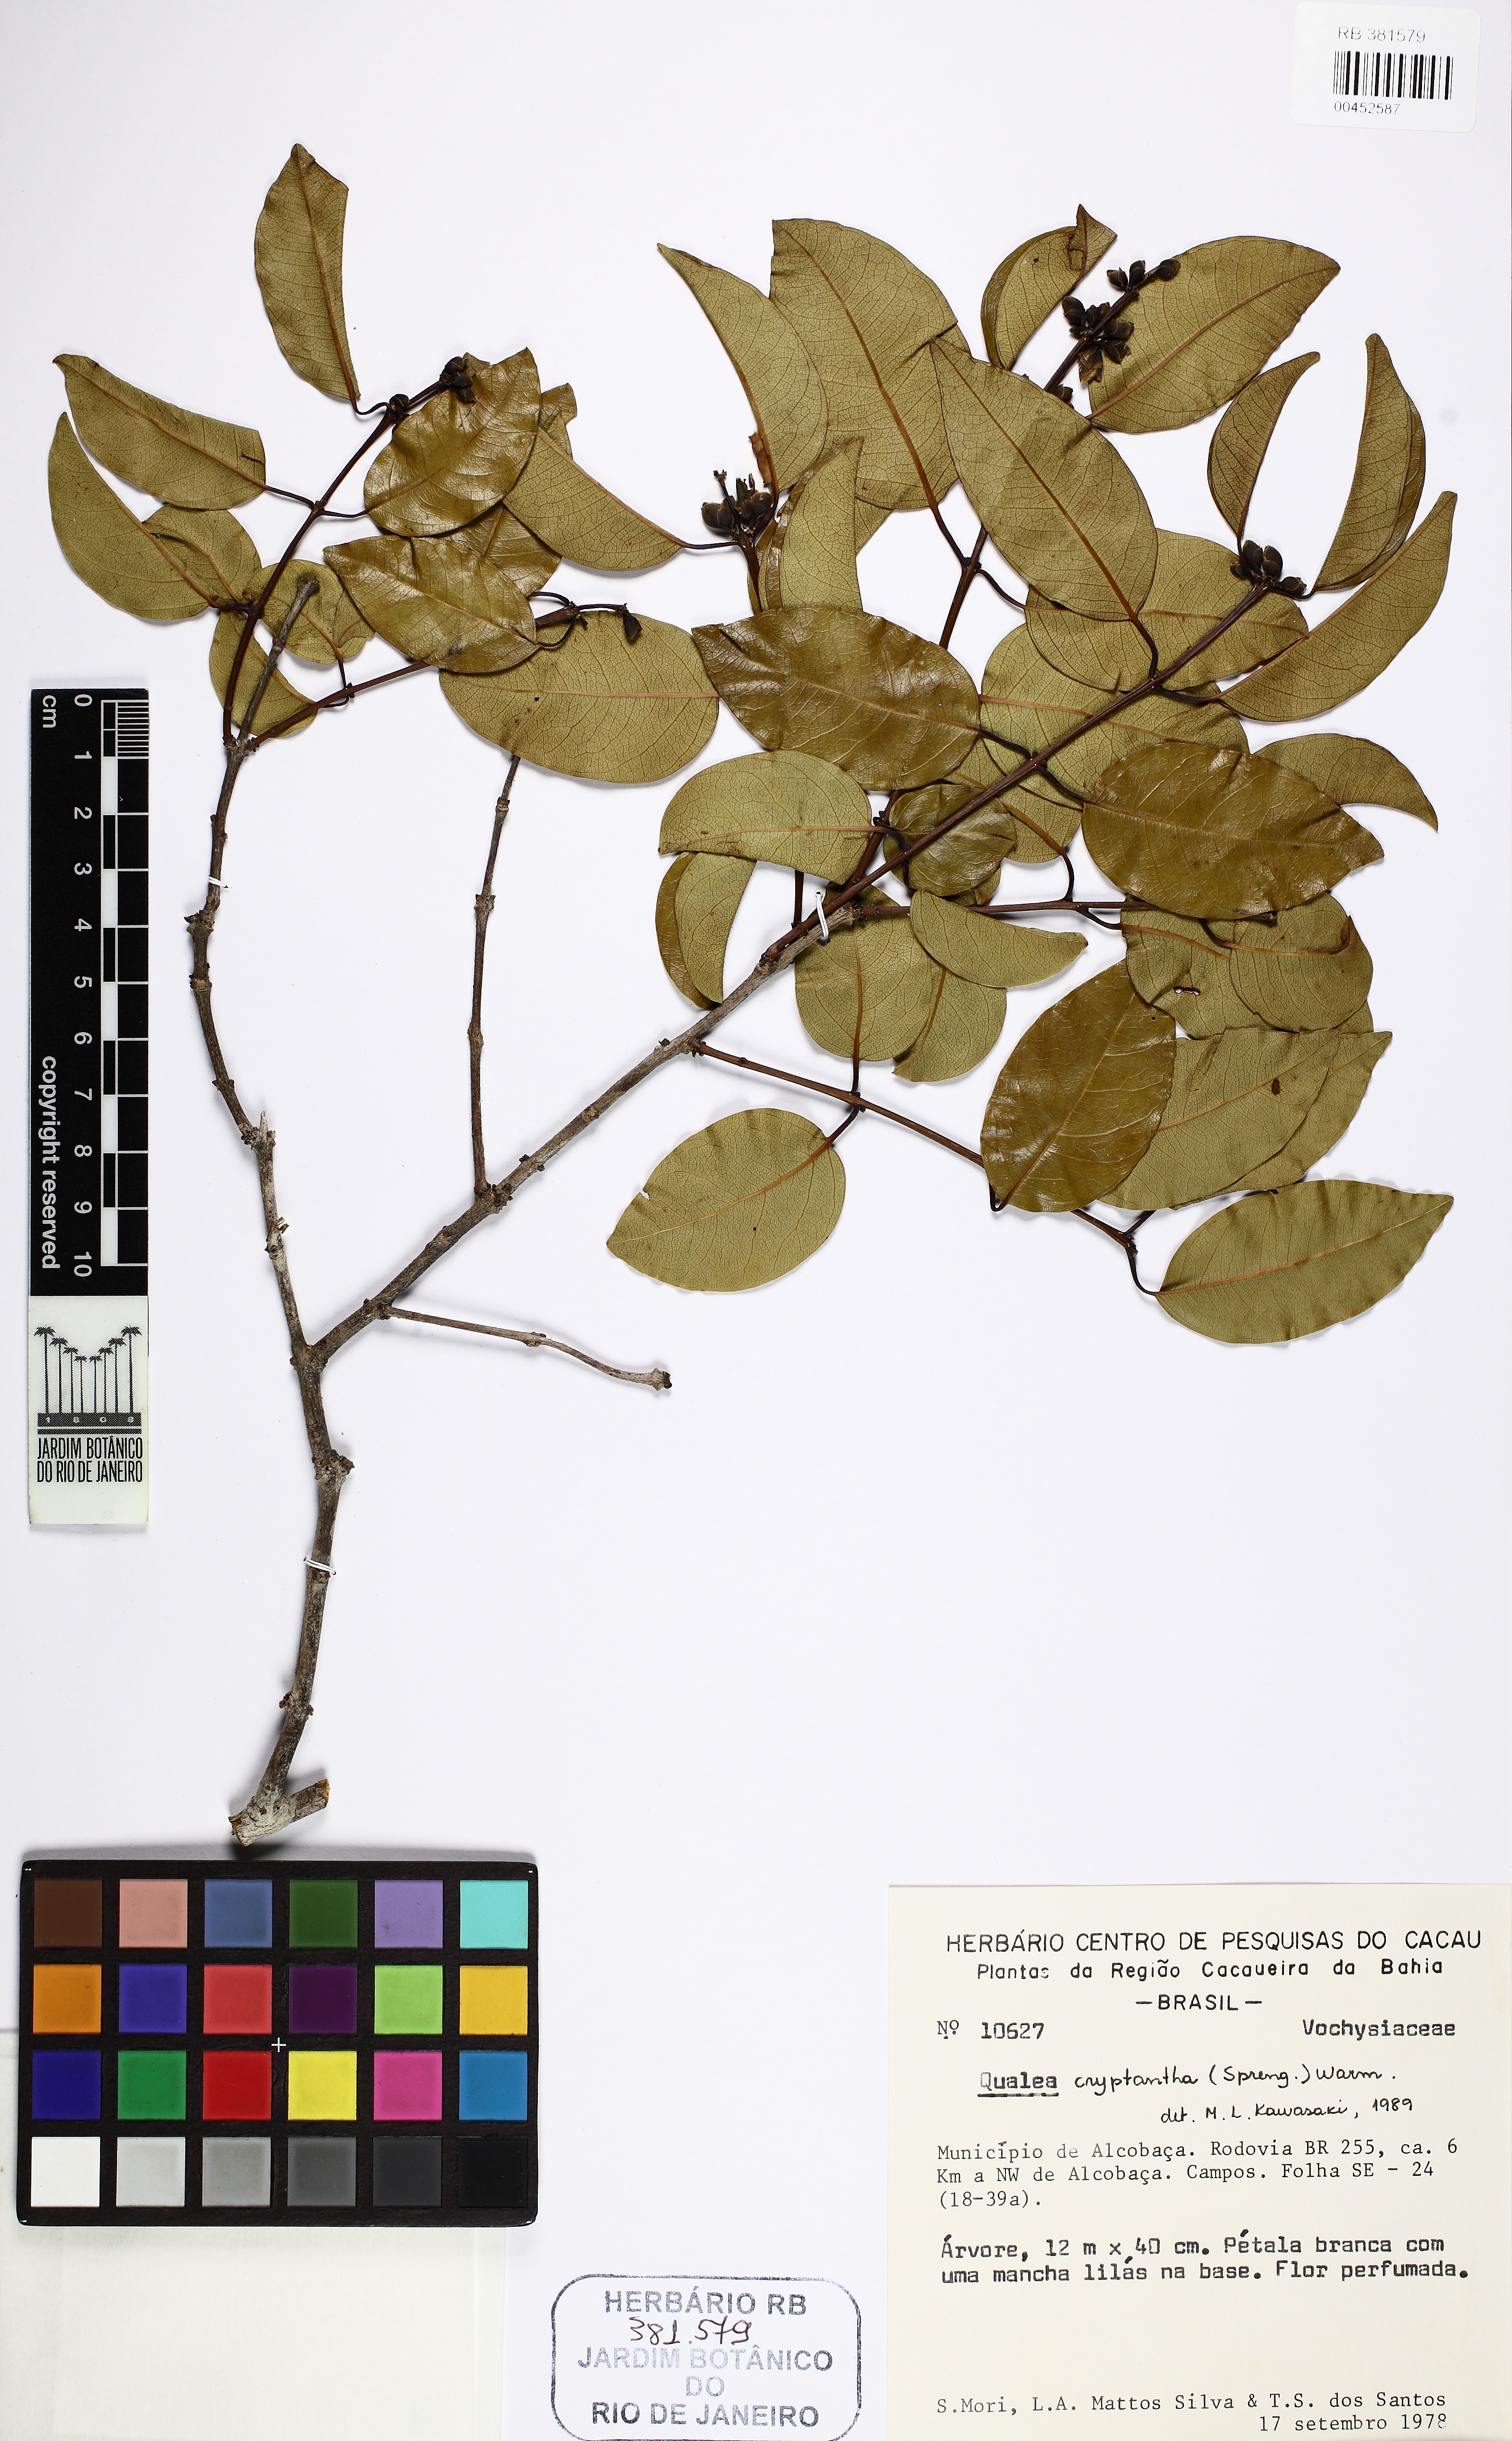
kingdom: Plantae
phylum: Tracheophyta
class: Magnoliopsida
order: Myrtales
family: Vochysiaceae
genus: Qualea
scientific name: Qualea cryptantha
